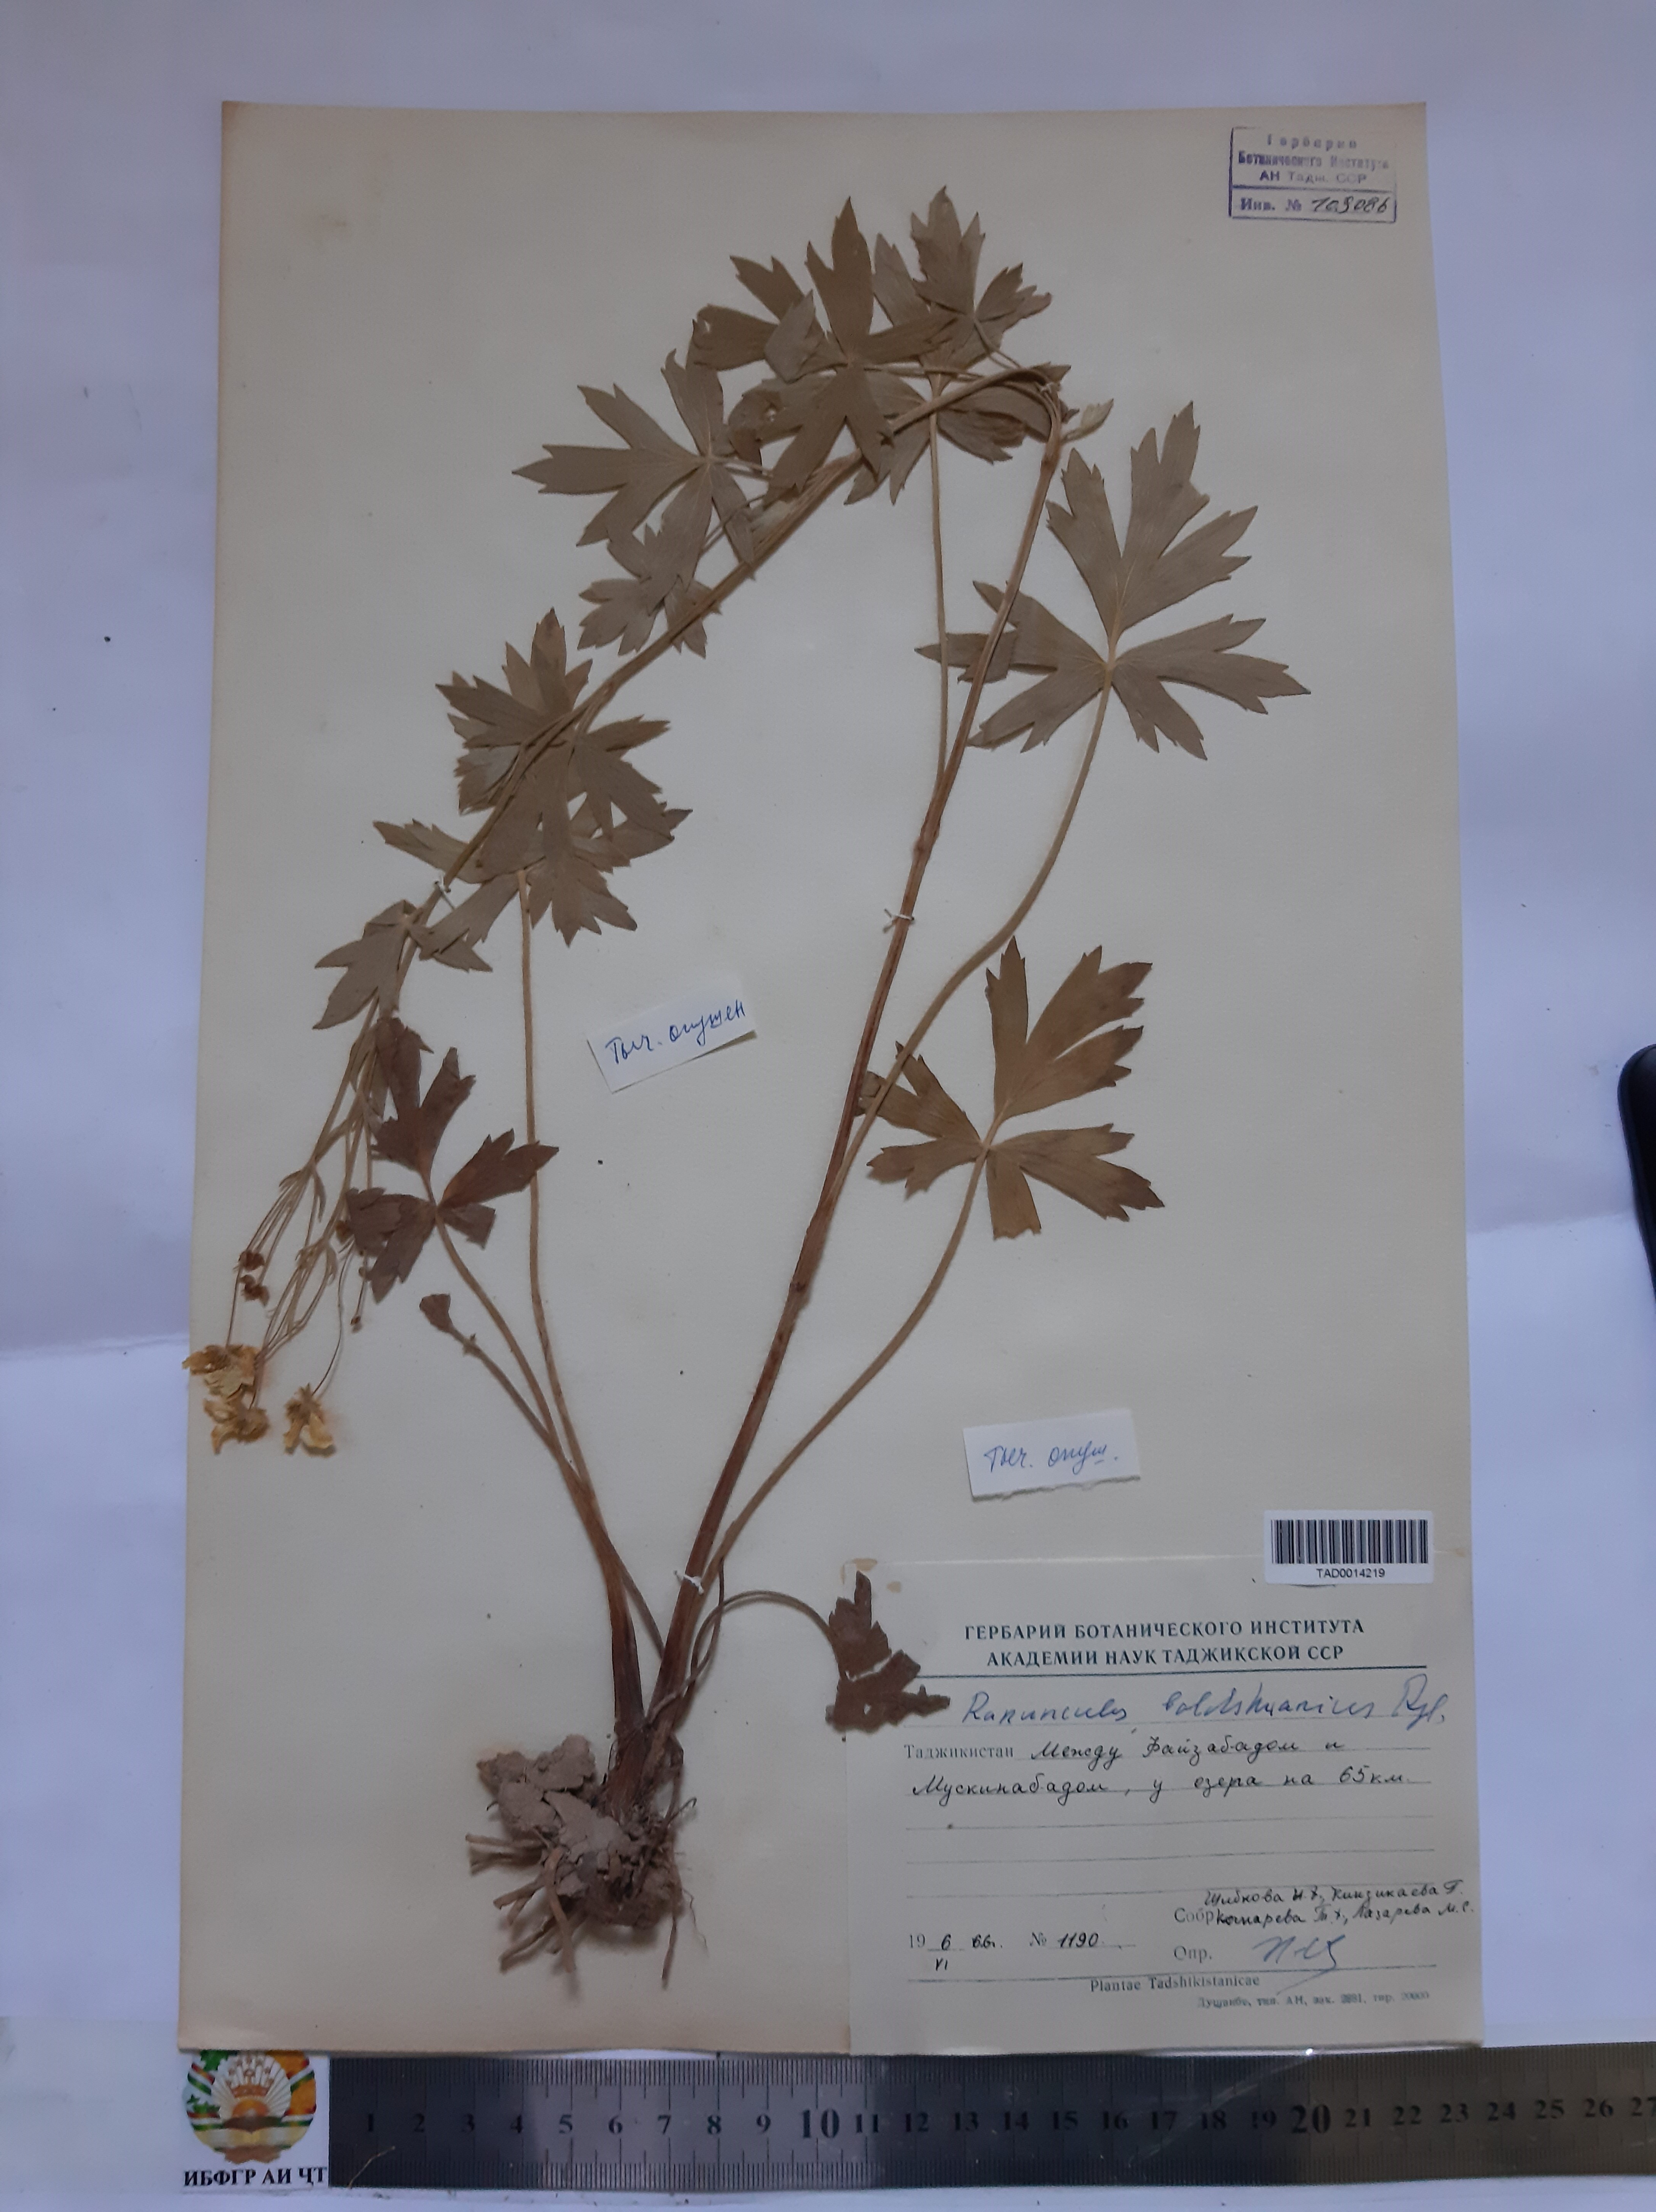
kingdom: Plantae
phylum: Tracheophyta
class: Magnoliopsida
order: Ranunculales
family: Ranunculaceae
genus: Ranunculus
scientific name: Ranunculus baldshuanicus
